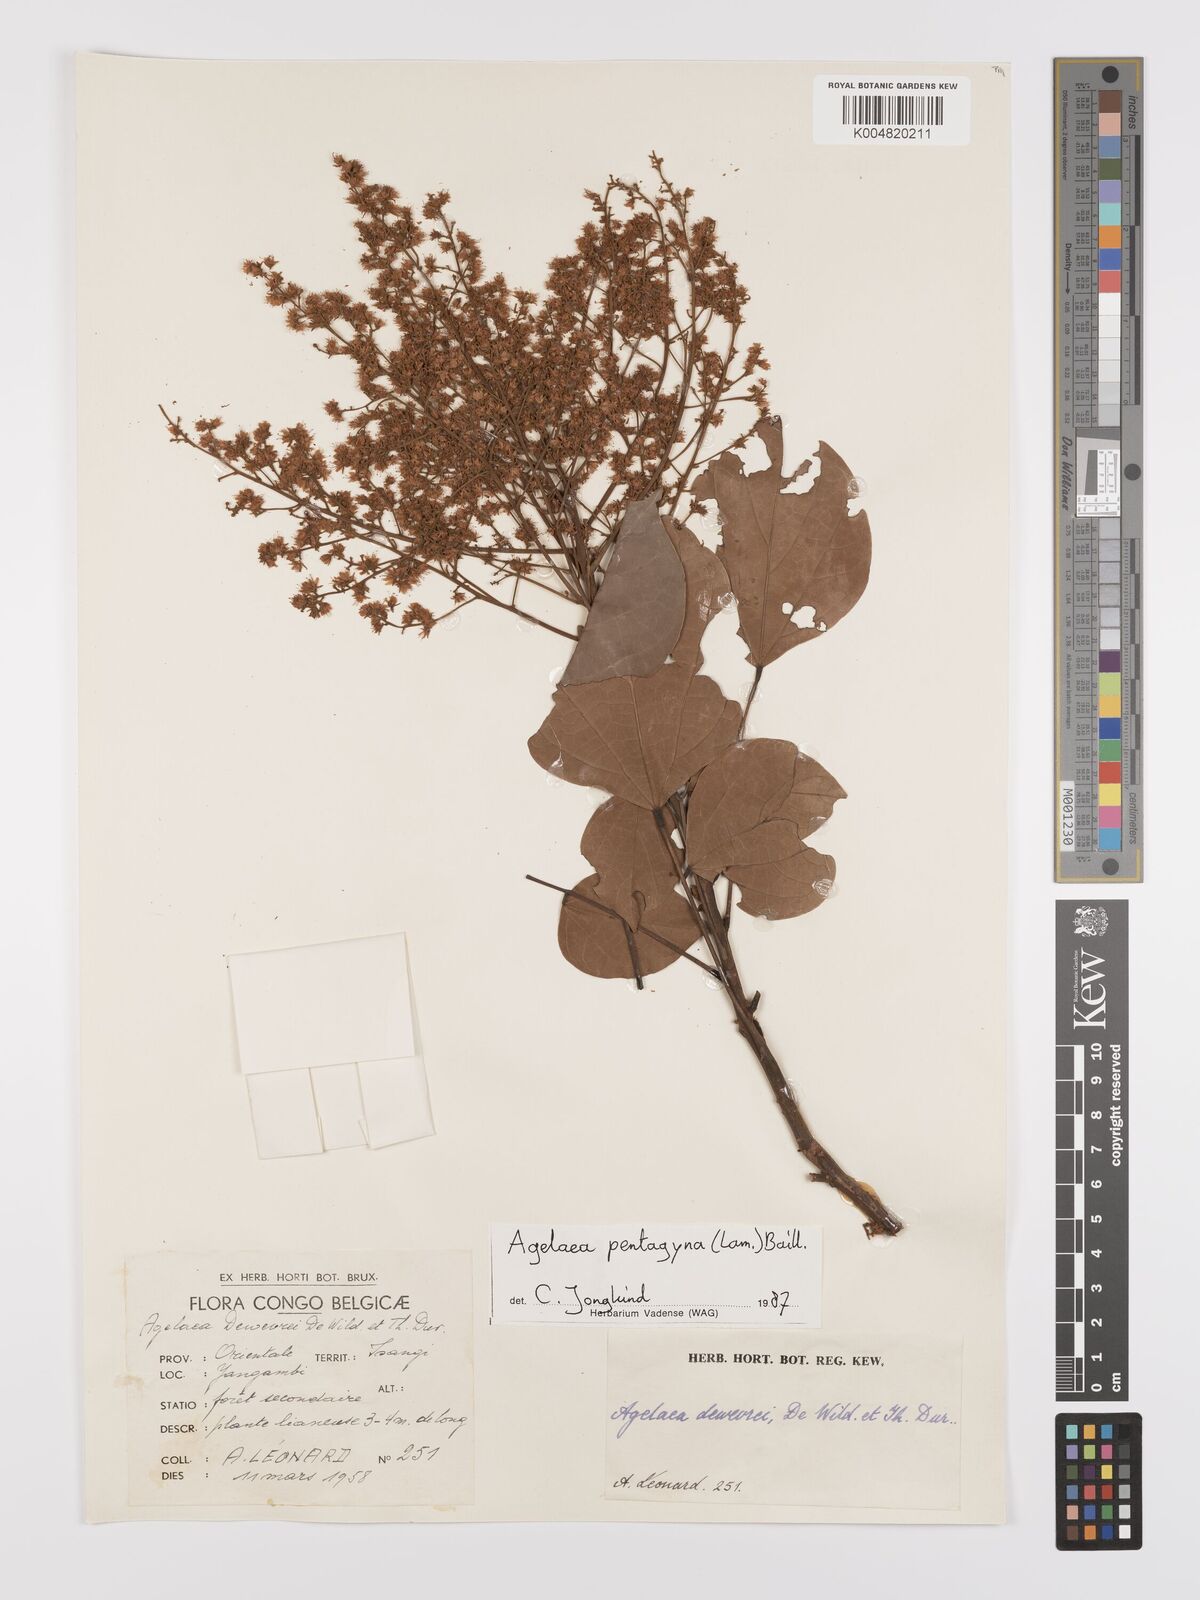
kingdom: Plantae
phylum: Tracheophyta
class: Magnoliopsida
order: Oxalidales
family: Connaraceae
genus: Agelaea
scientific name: Agelaea pentagyna
